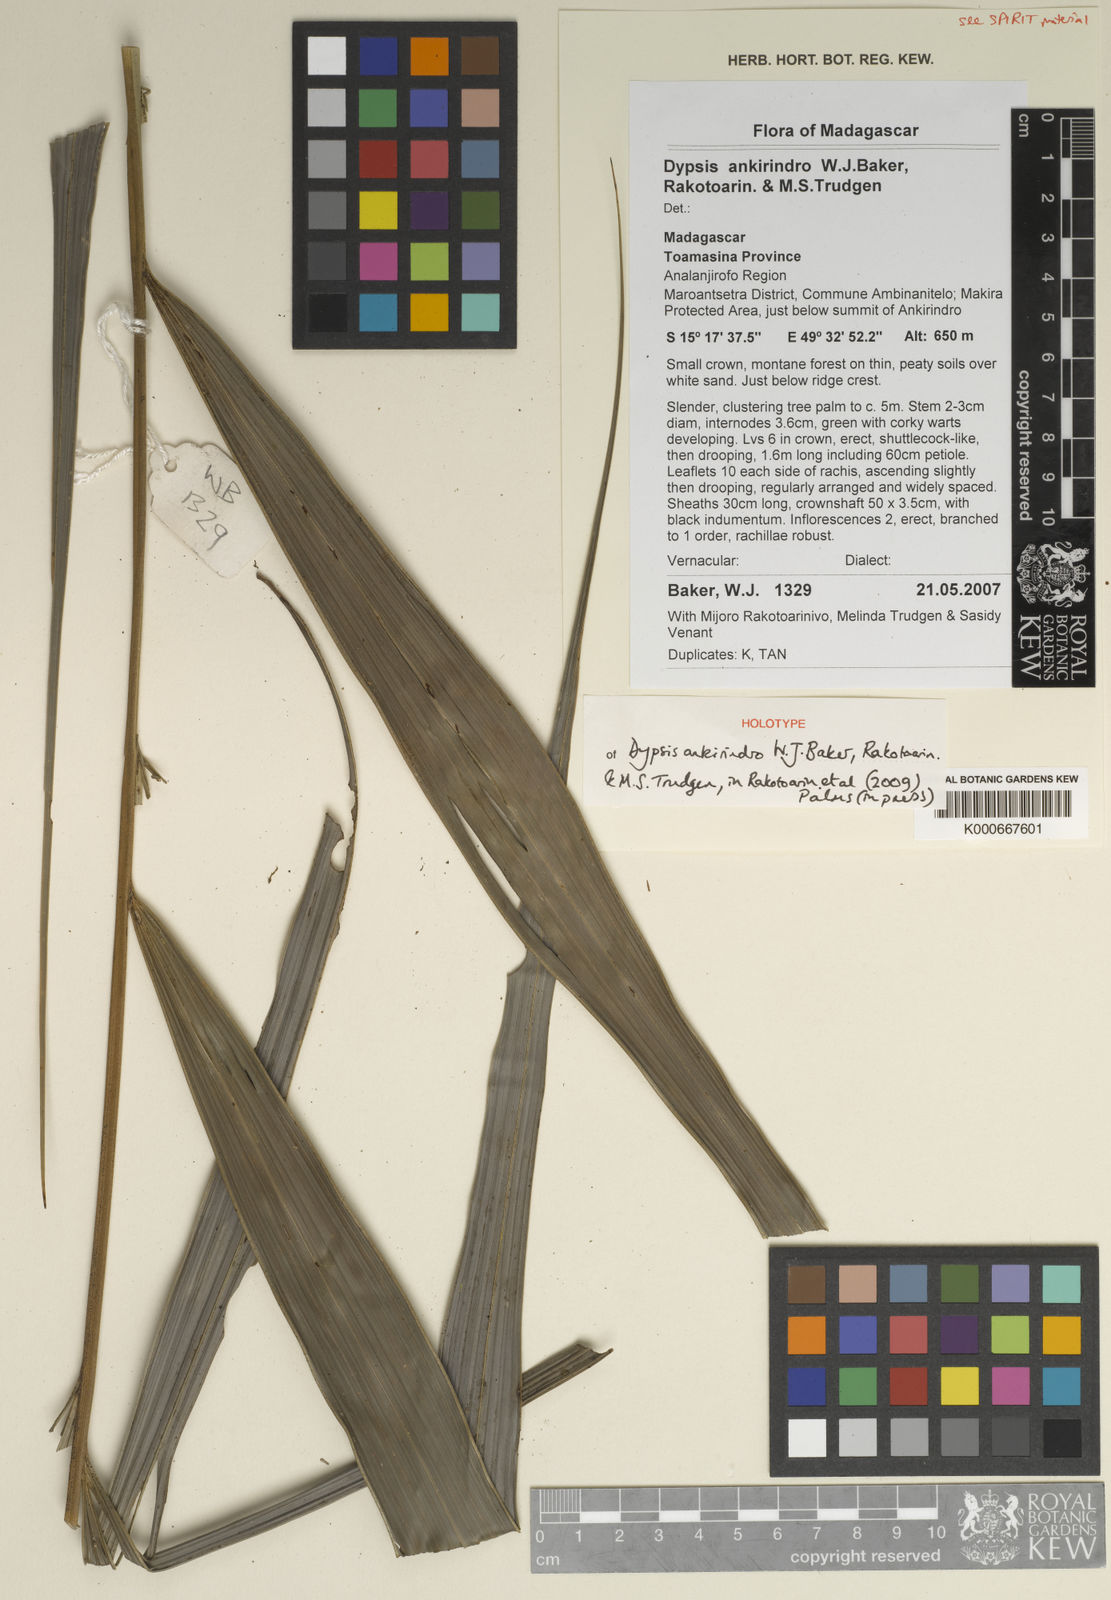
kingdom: Plantae
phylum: Tracheophyta
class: Liliopsida
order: Arecales
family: Arecaceae
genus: Dypsis
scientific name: Dypsis ankirindro
